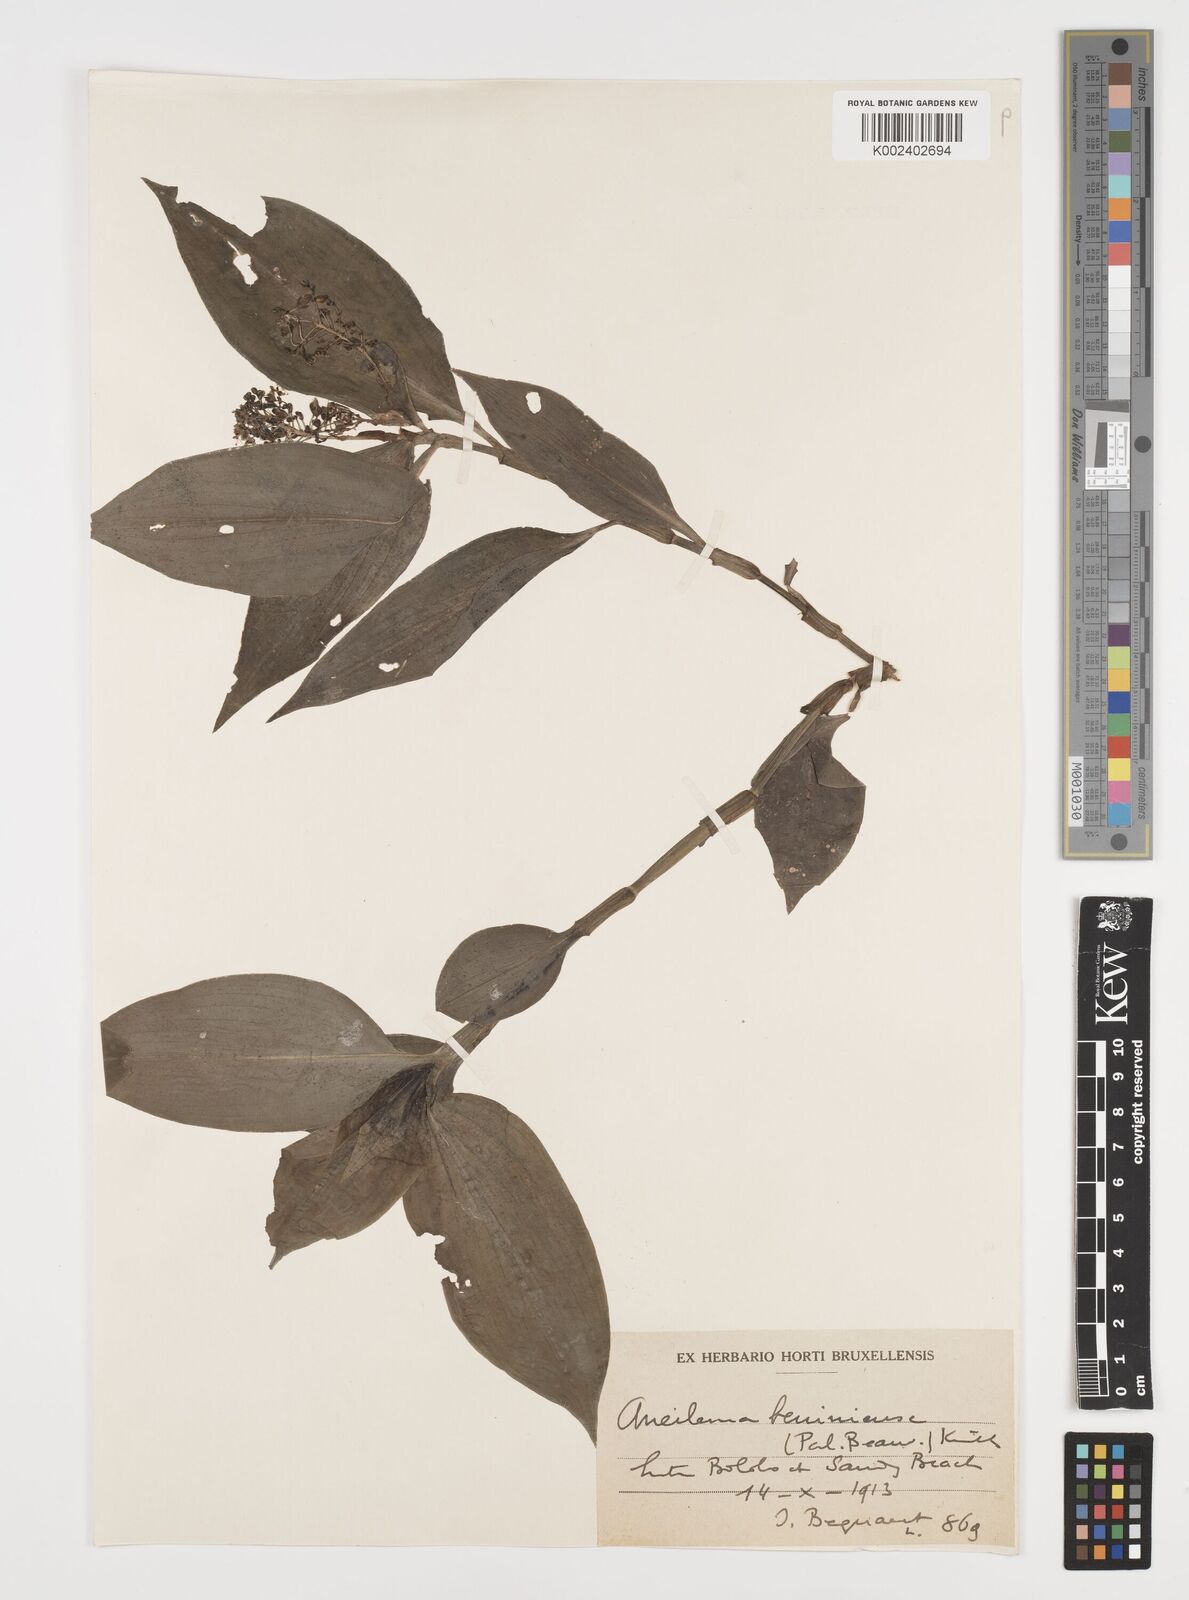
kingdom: Plantae
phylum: Tracheophyta
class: Liliopsida
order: Commelinales
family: Commelinaceae
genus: Aneilema
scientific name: Aneilema beniniense
